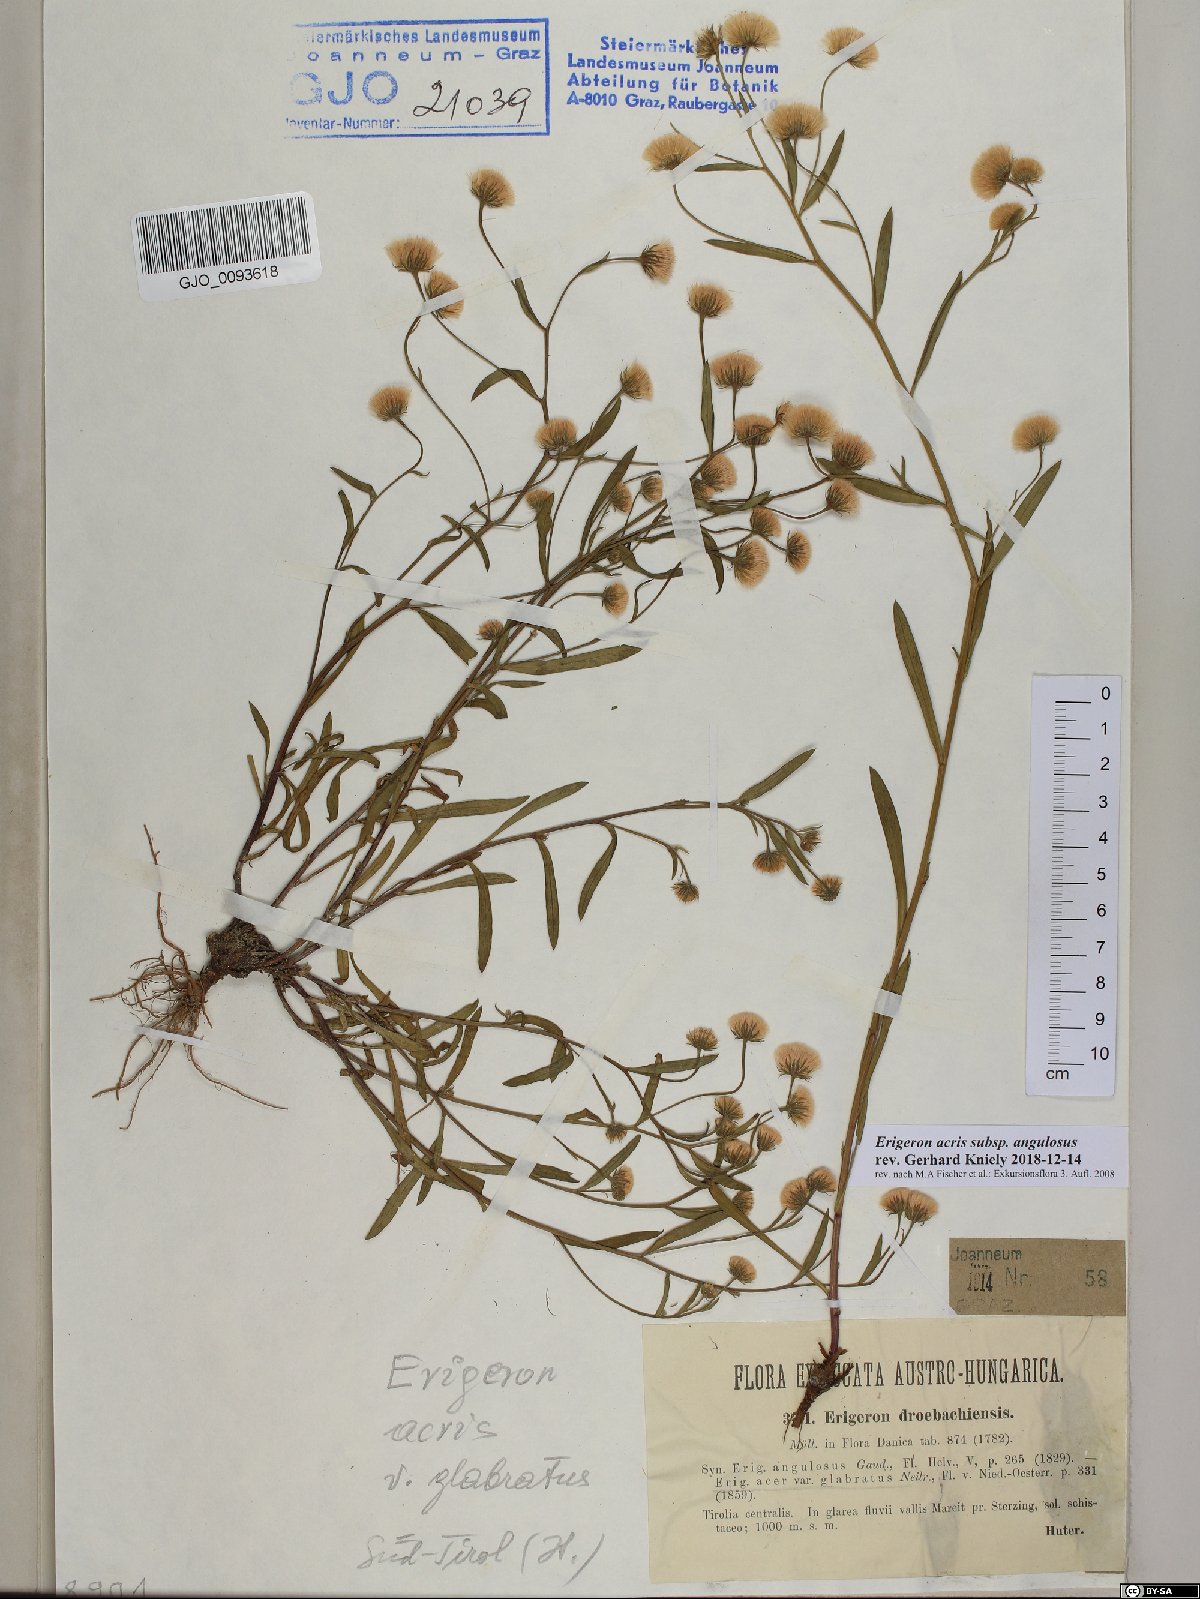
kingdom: Plantae
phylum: Tracheophyta
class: Magnoliopsida
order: Asterales
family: Asteraceae
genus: Erigeron
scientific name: Erigeron angulosus
